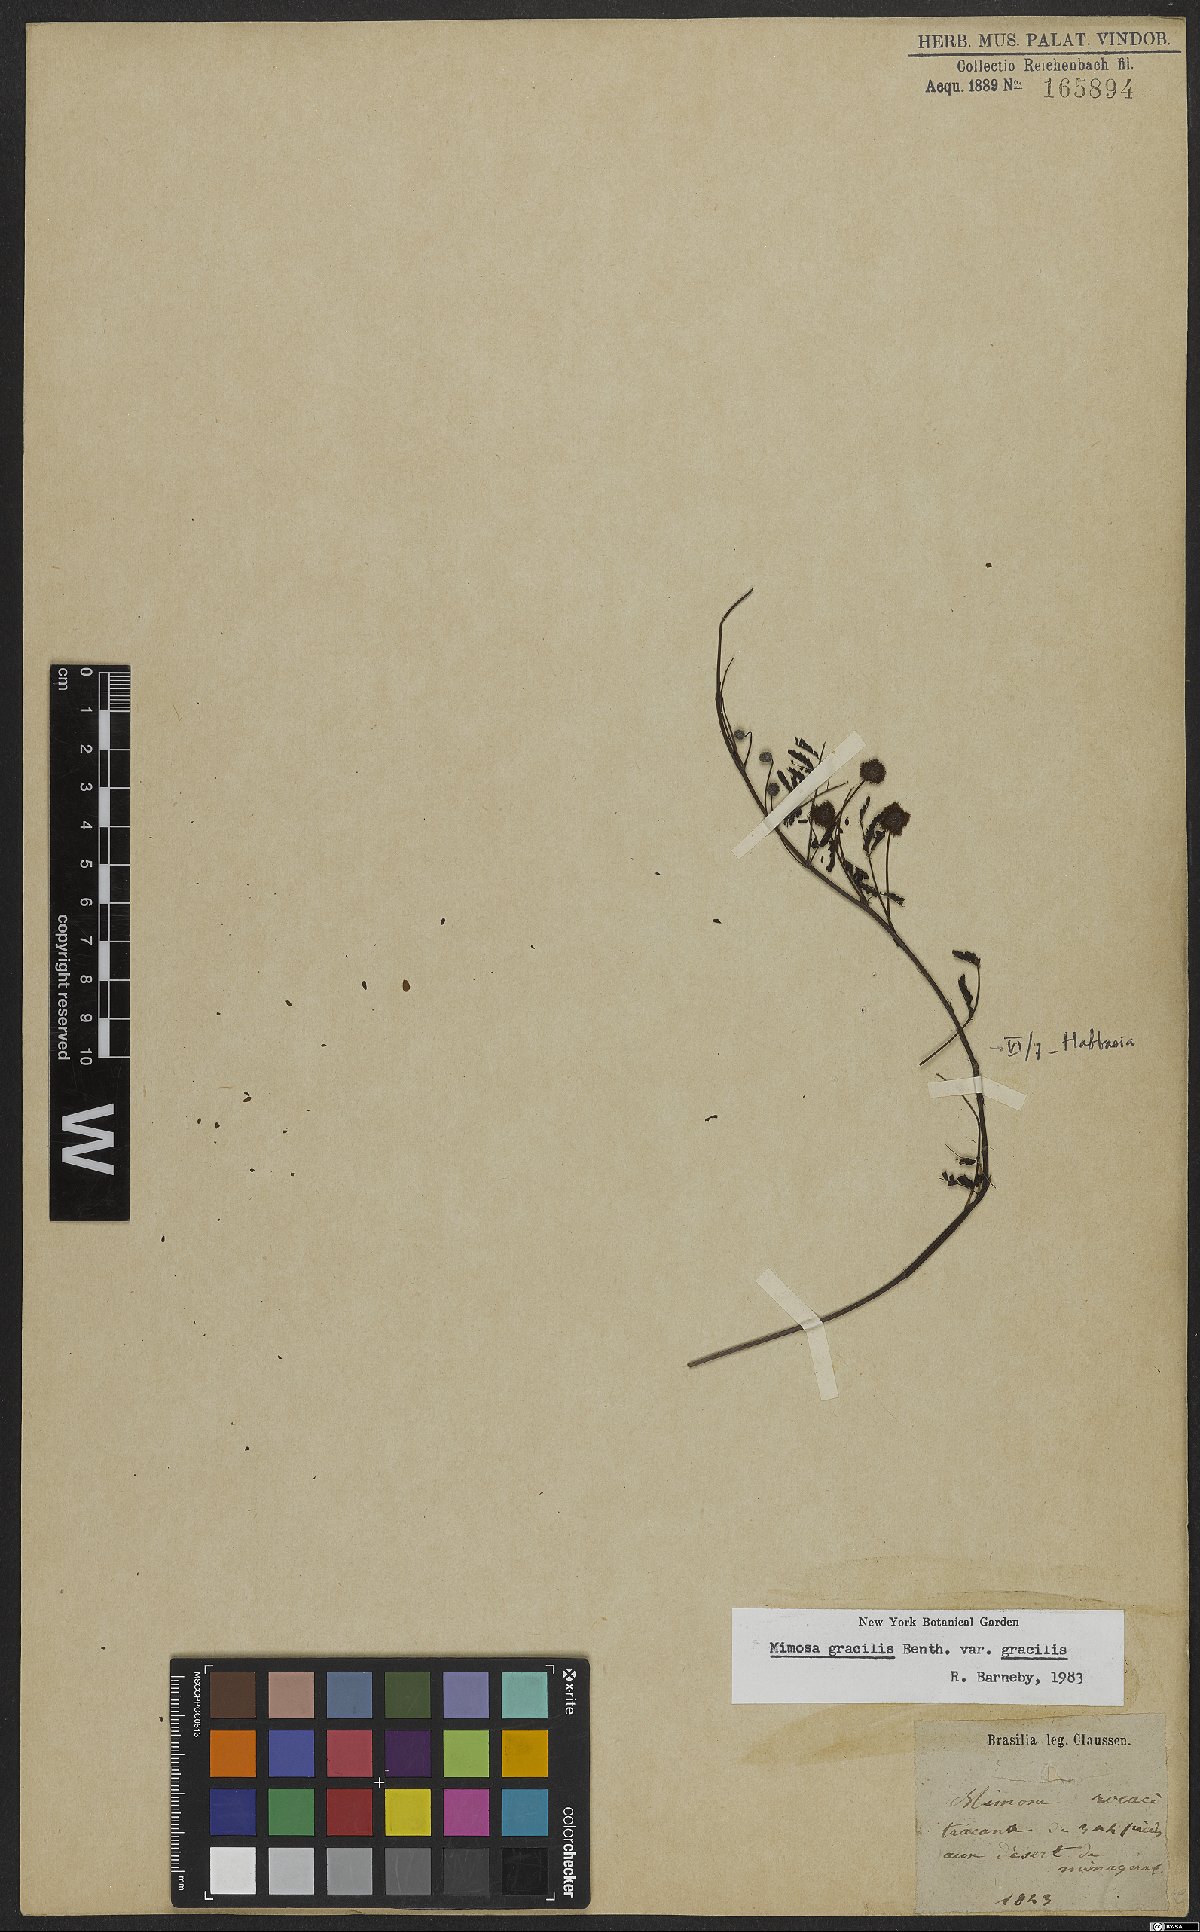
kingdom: Plantae
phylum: Tracheophyta
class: Magnoliopsida
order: Fabales
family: Fabaceae
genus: Mimosa
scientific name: Mimosa gracilis
